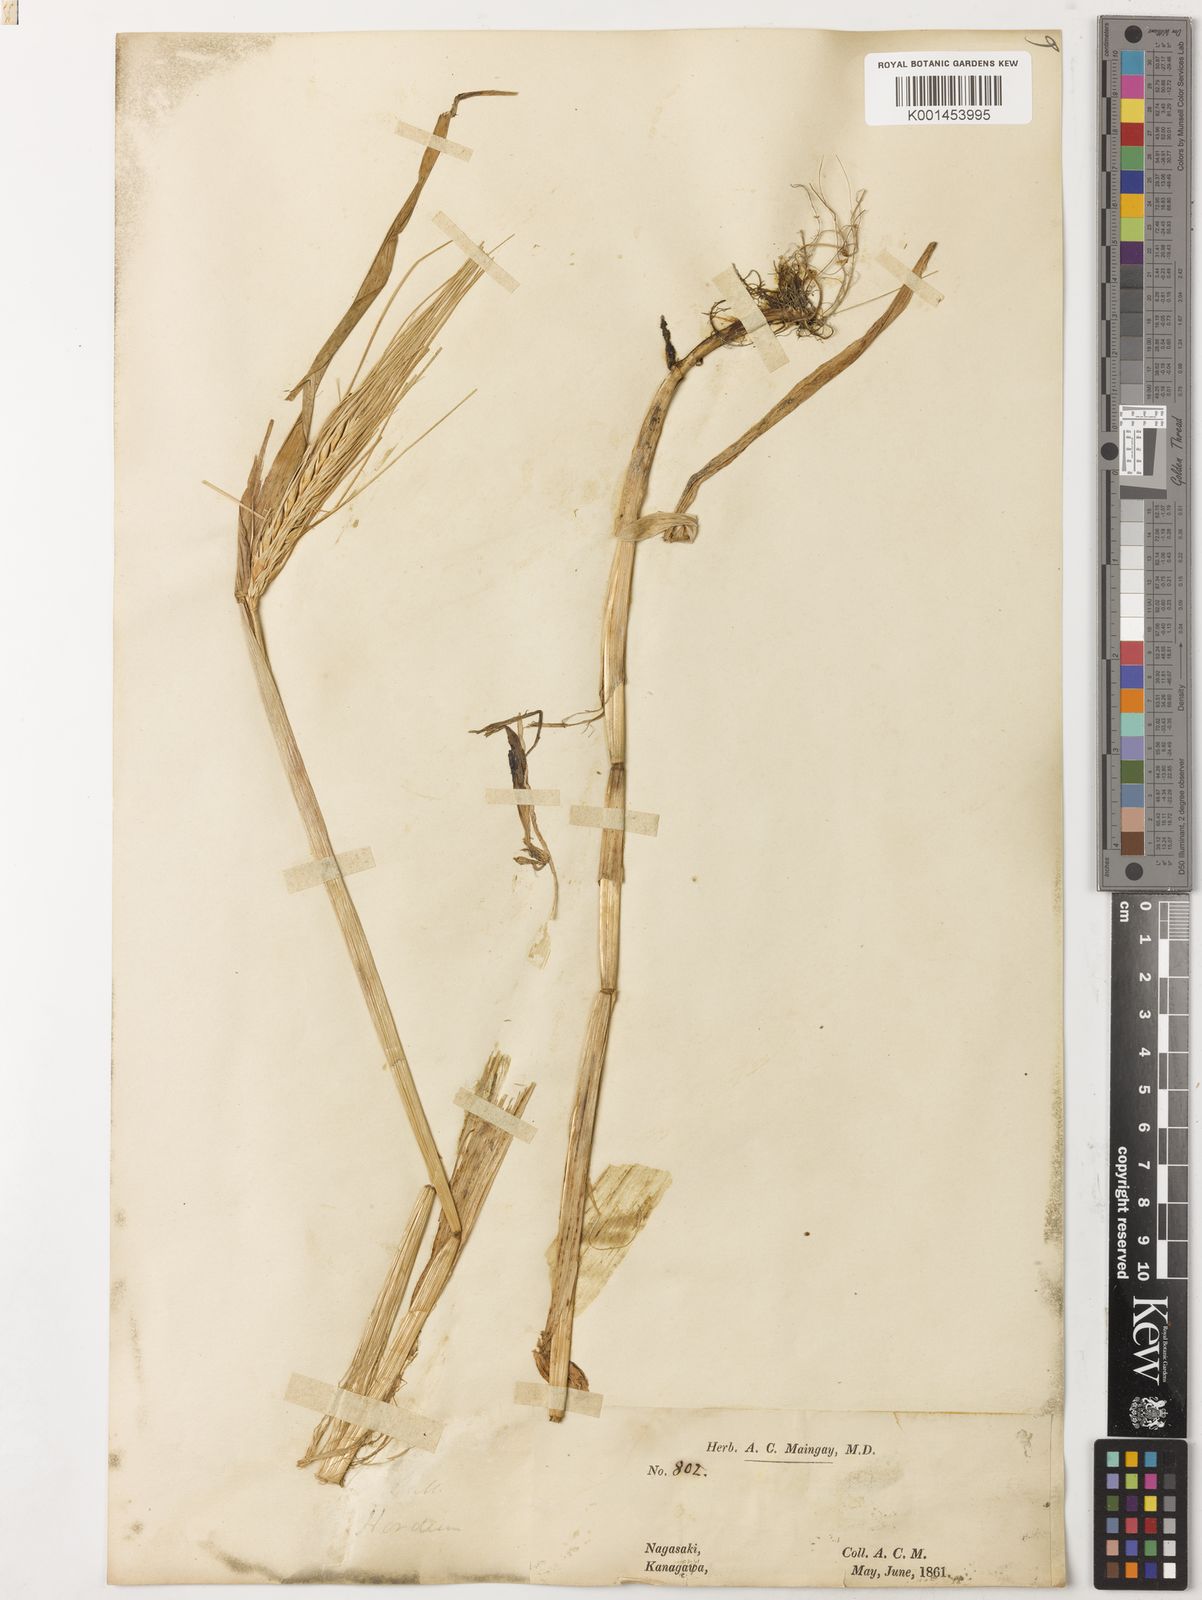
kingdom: Plantae
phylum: Tracheophyta
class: Liliopsida
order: Poales
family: Poaceae
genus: Hordeum
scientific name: Hordeum vulgare
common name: Common barley
